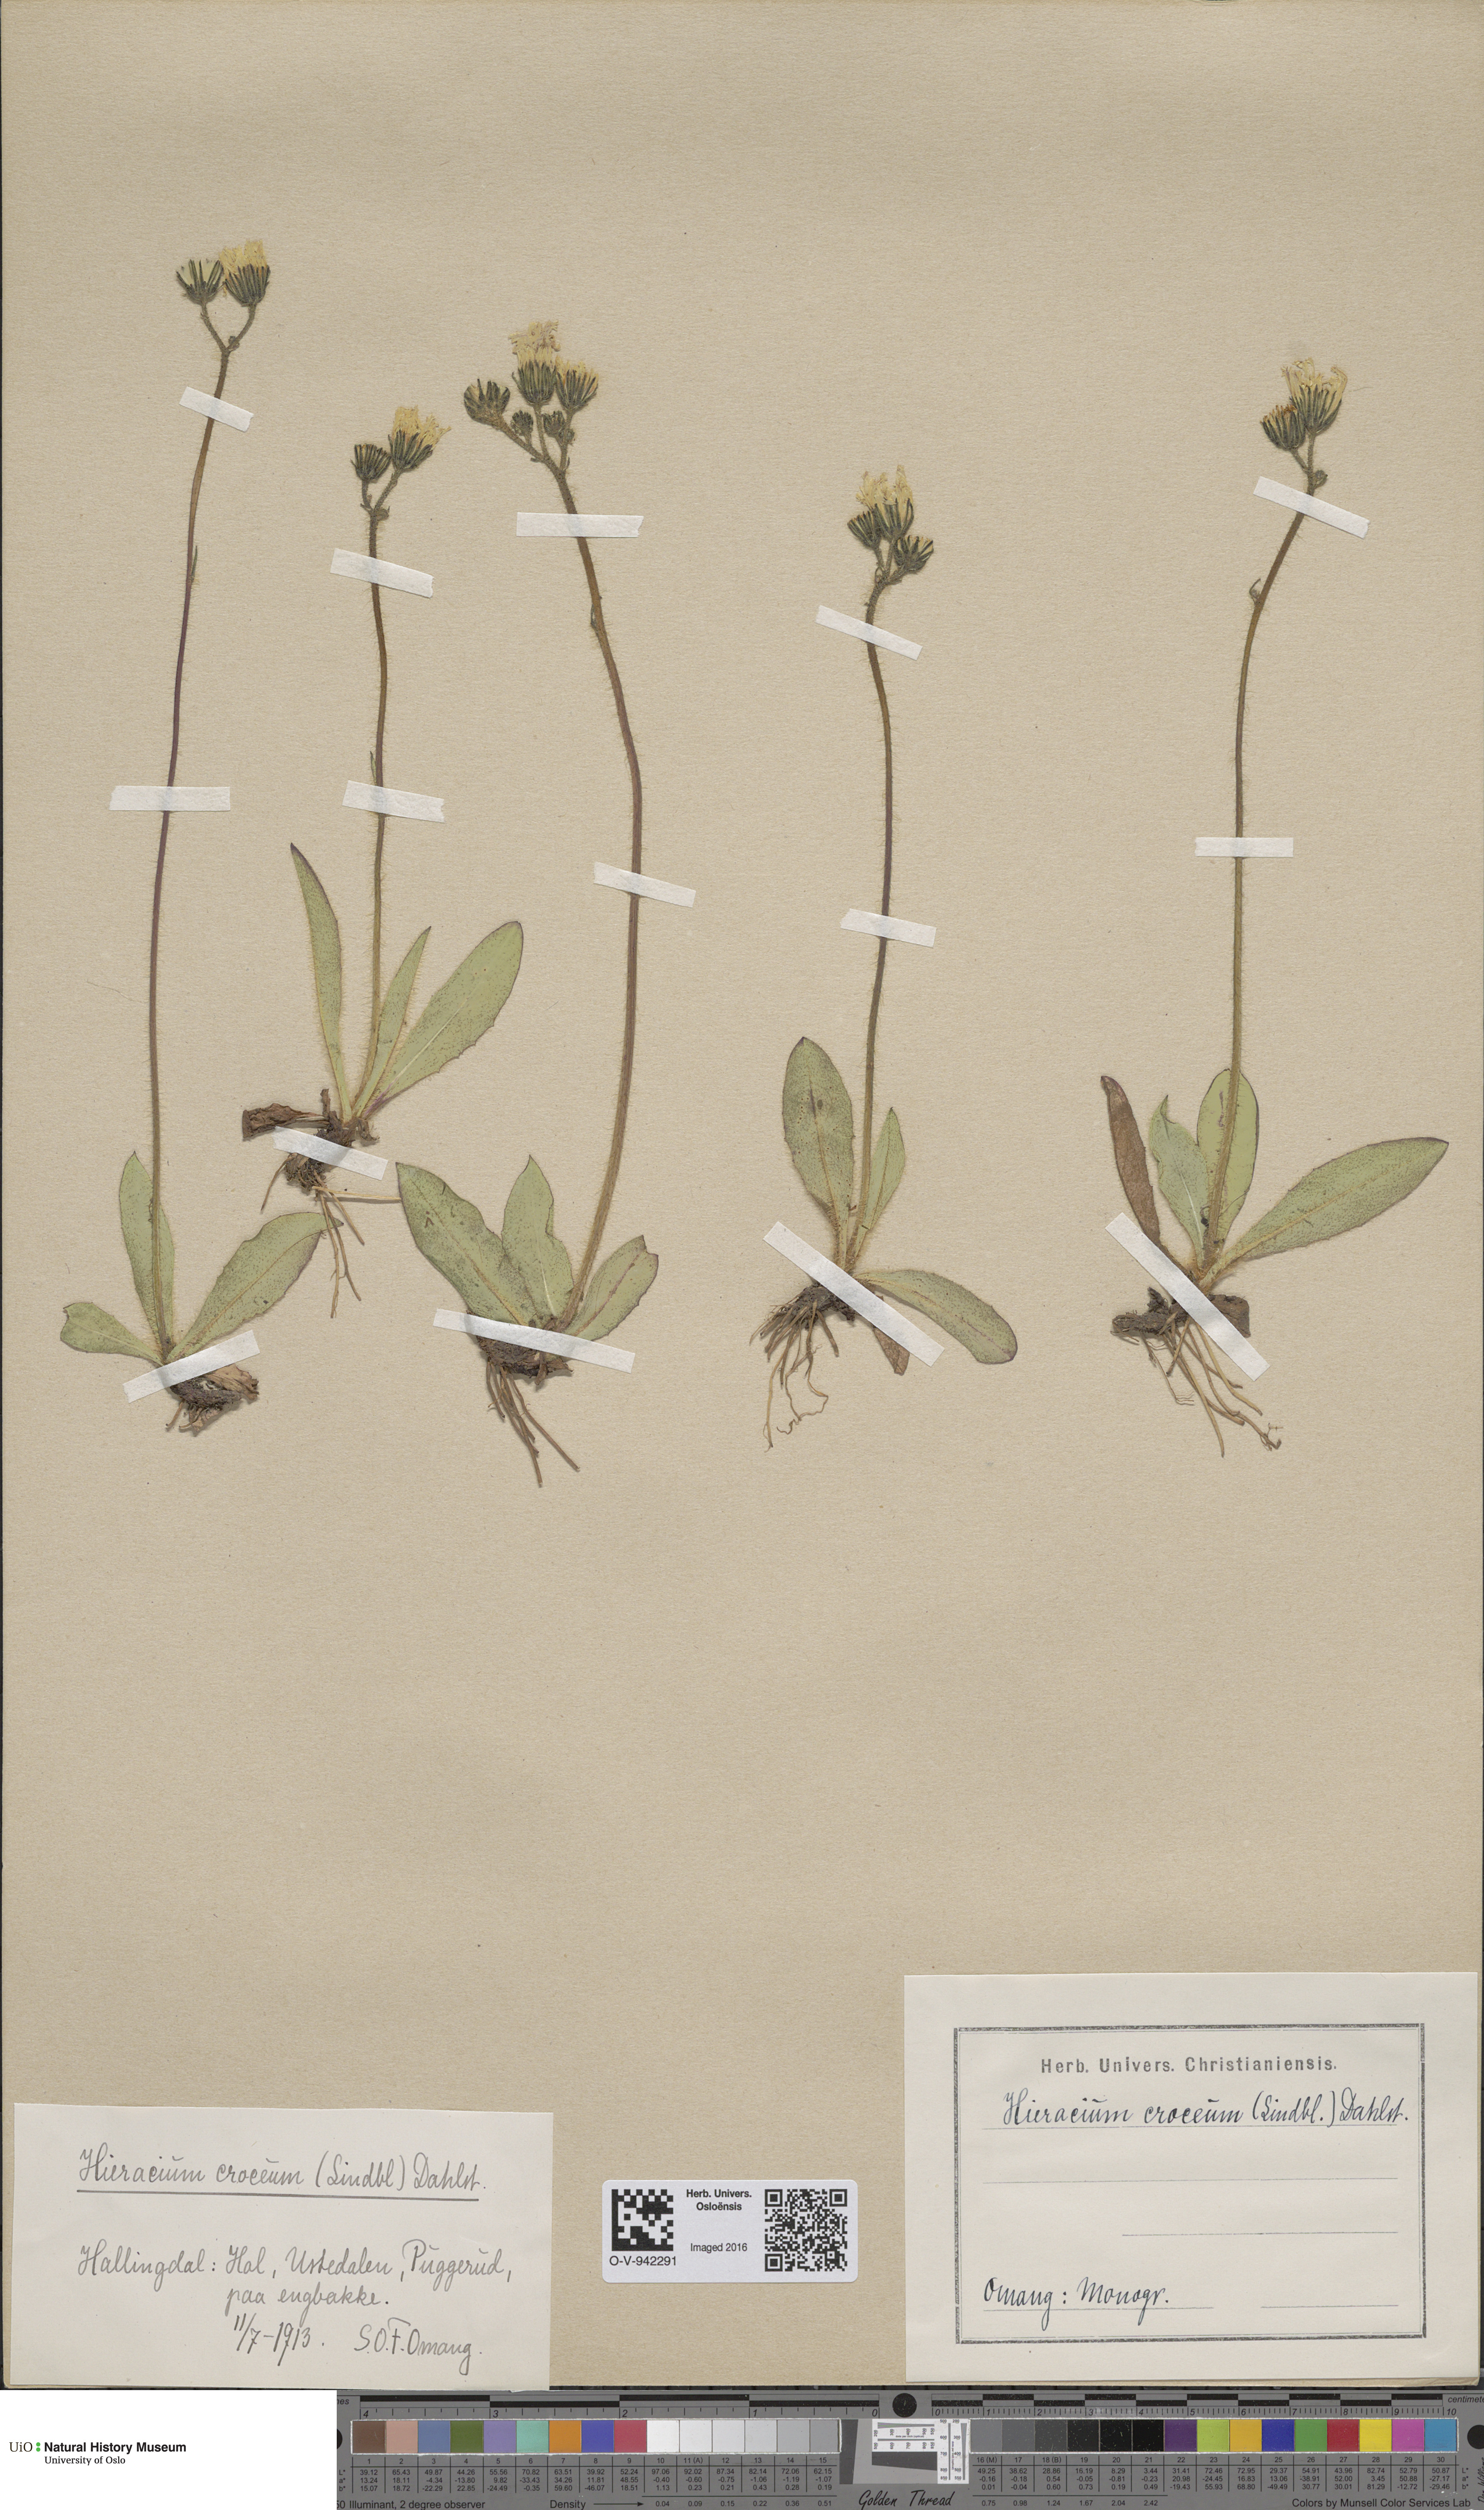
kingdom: Plantae
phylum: Tracheophyta
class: Magnoliopsida
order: Asterales
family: Asteraceae
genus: Pilosella
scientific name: Pilosella fuscoatra
